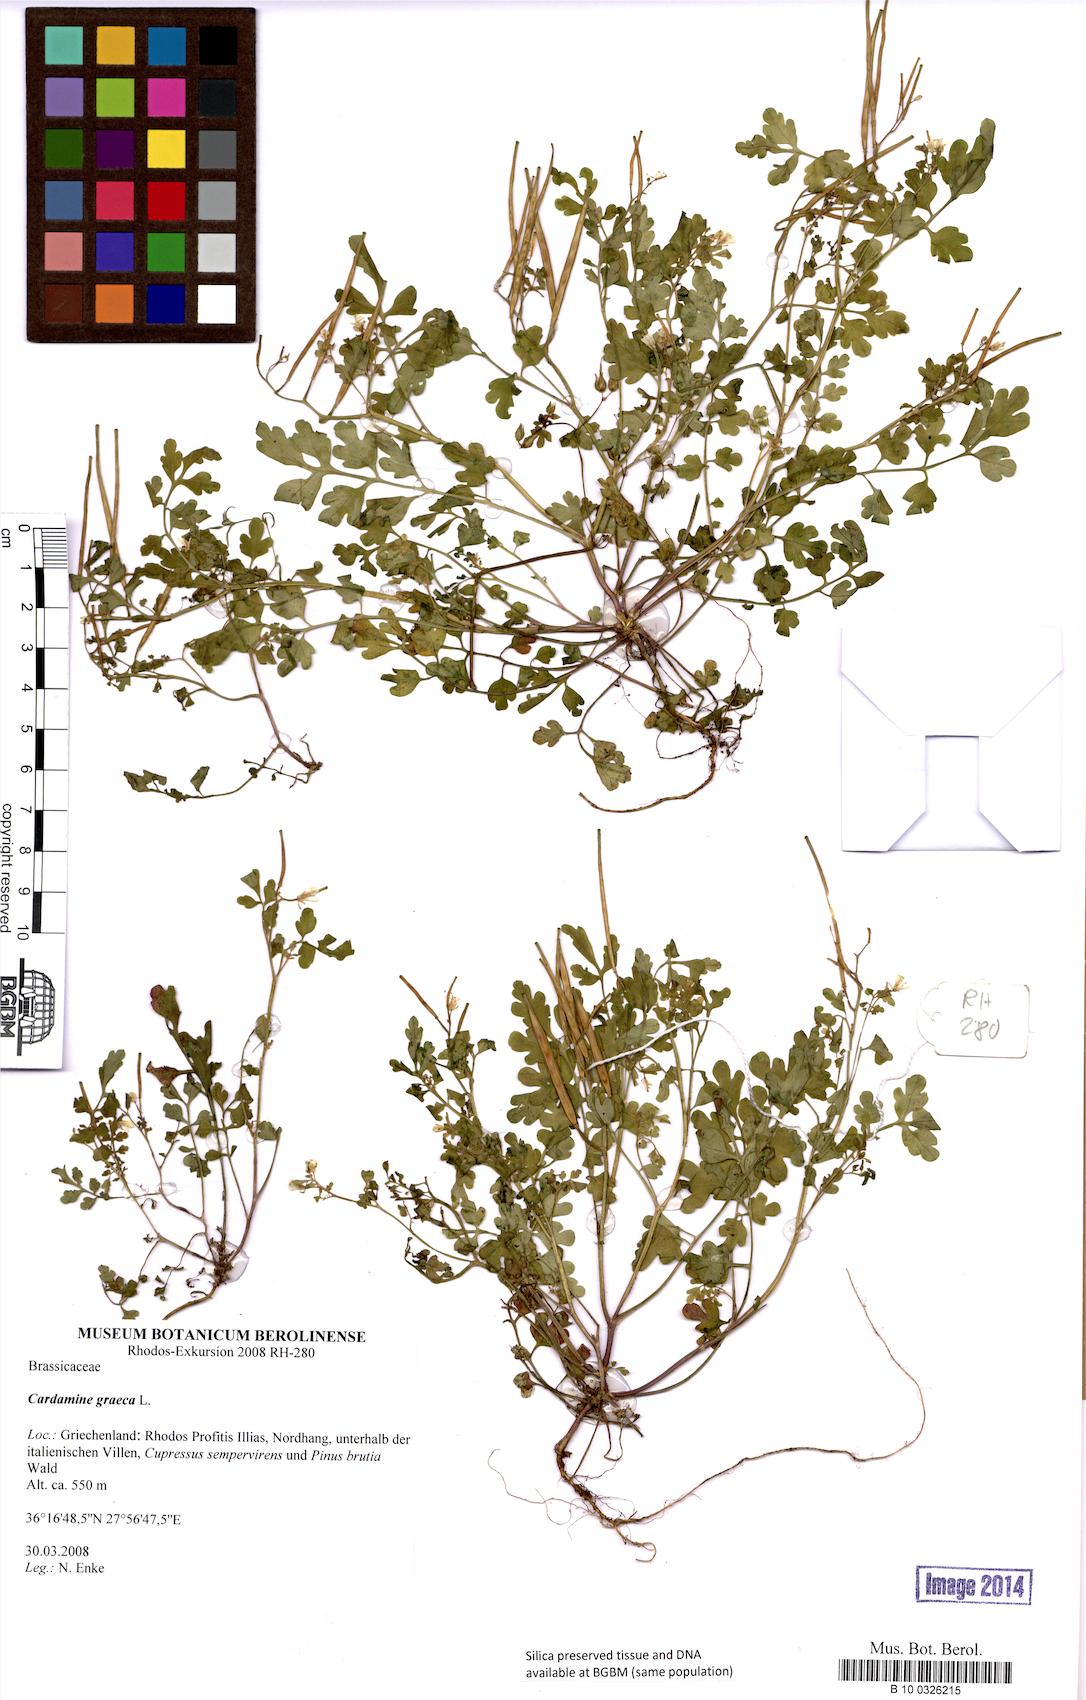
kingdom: Plantae
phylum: Tracheophyta
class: Magnoliopsida
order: Brassicales
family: Brassicaceae
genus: Cardamine
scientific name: Cardamine graeca
